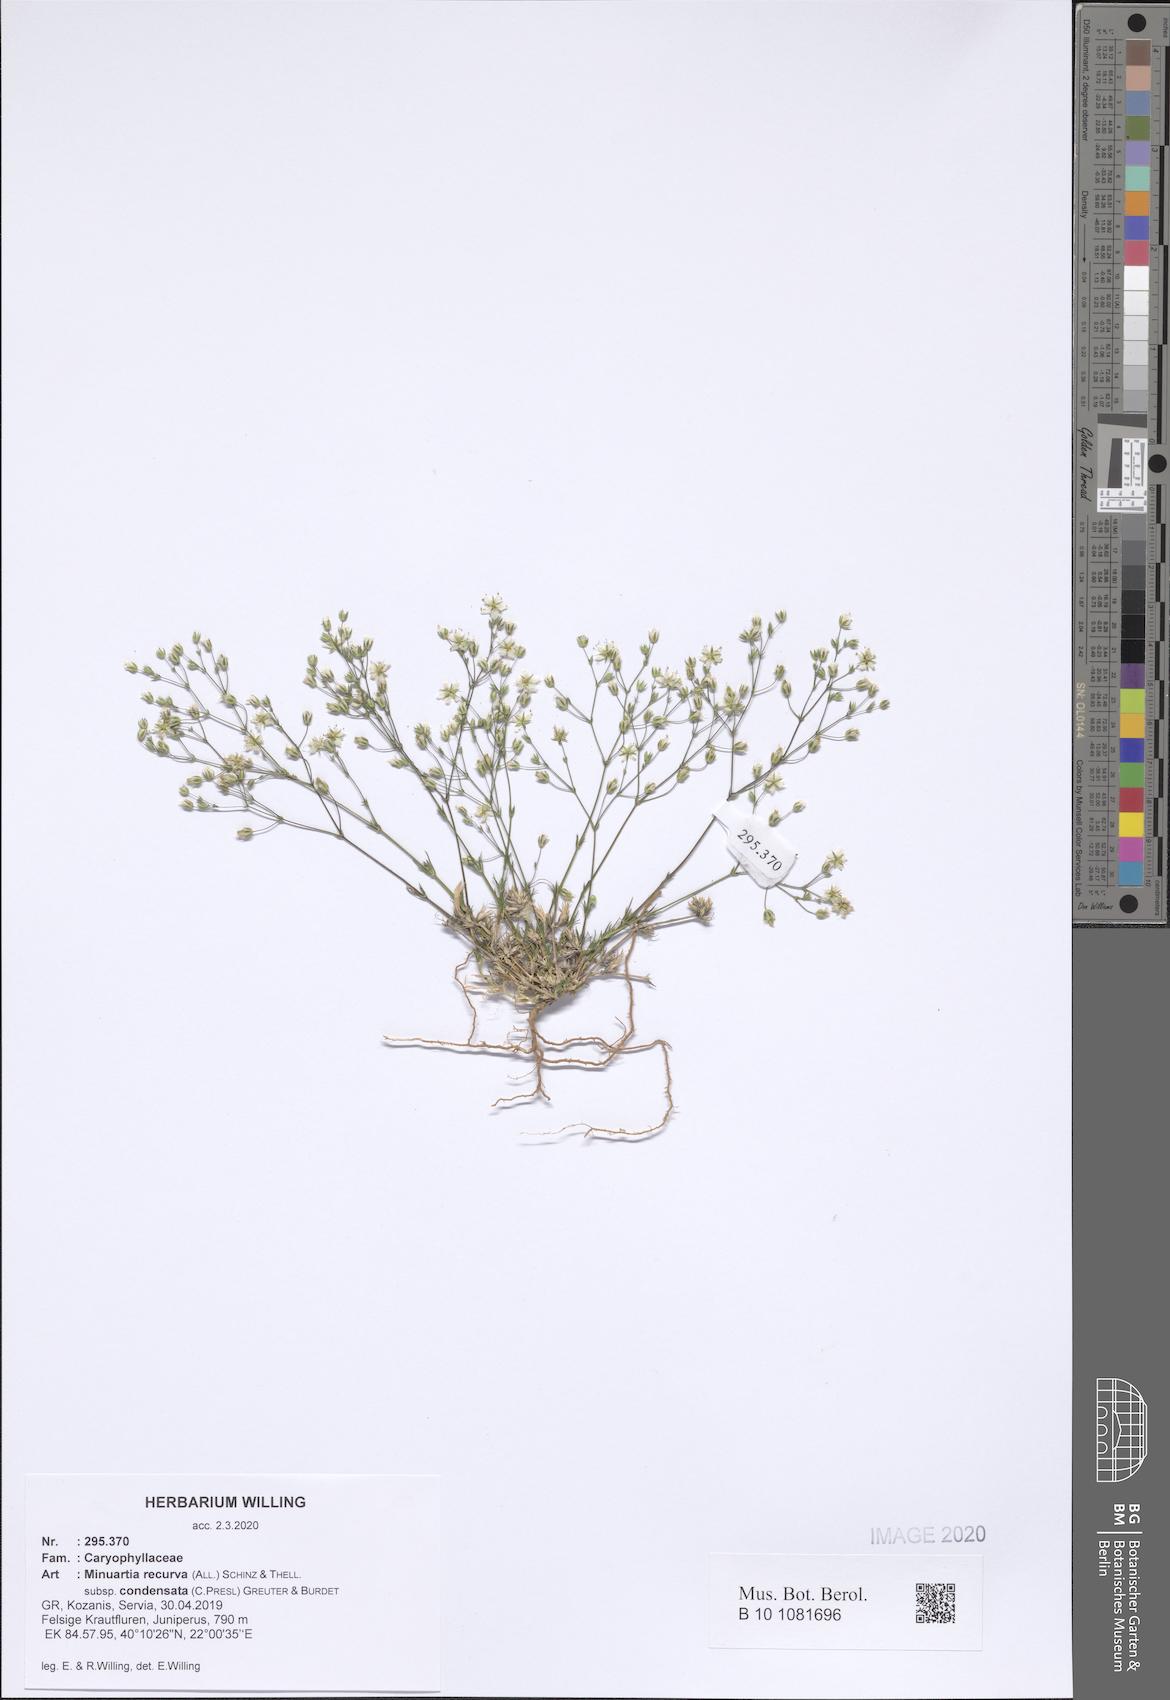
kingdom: Plantae
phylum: Tracheophyta
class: Magnoliopsida
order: Caryophyllales
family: Caryophyllaceae
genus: Minuartia
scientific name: Minuartia recurva
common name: Recurved sandwort
